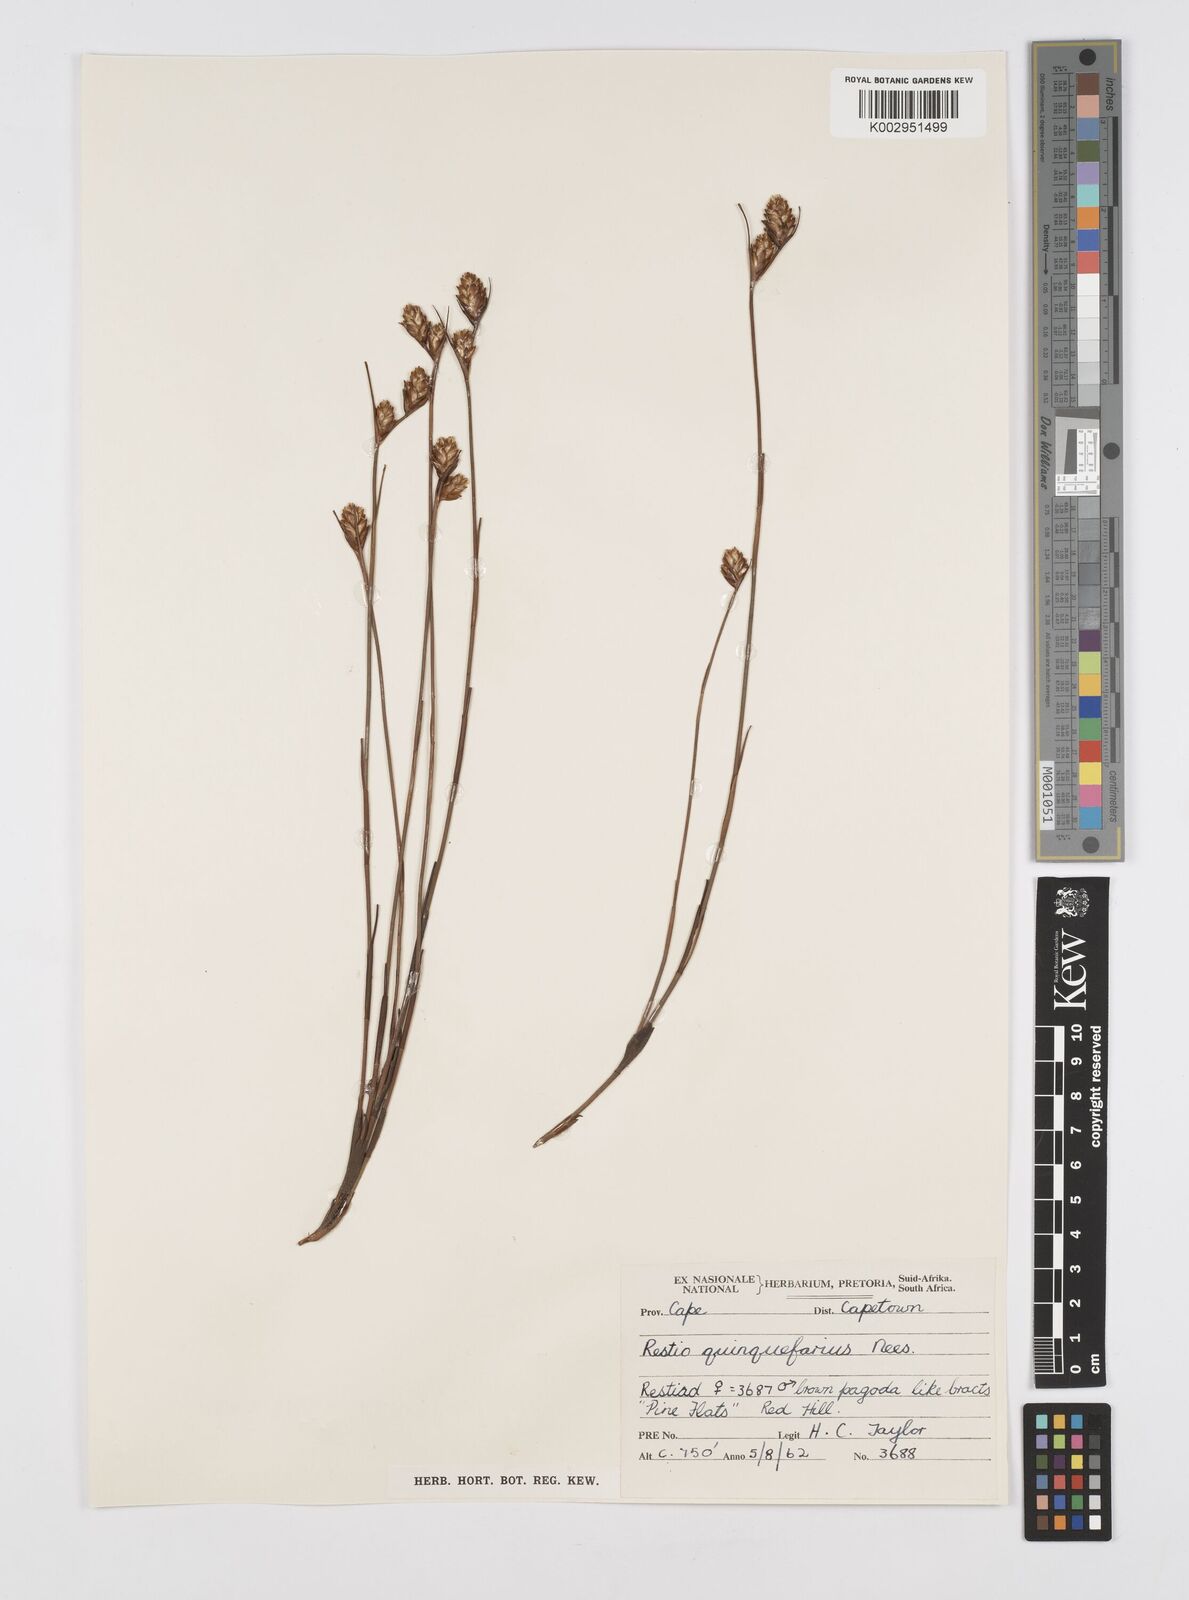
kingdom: Plantae
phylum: Tracheophyta
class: Liliopsida
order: Poales
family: Restionaceae
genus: Restio
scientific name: Restio quinquefarius
